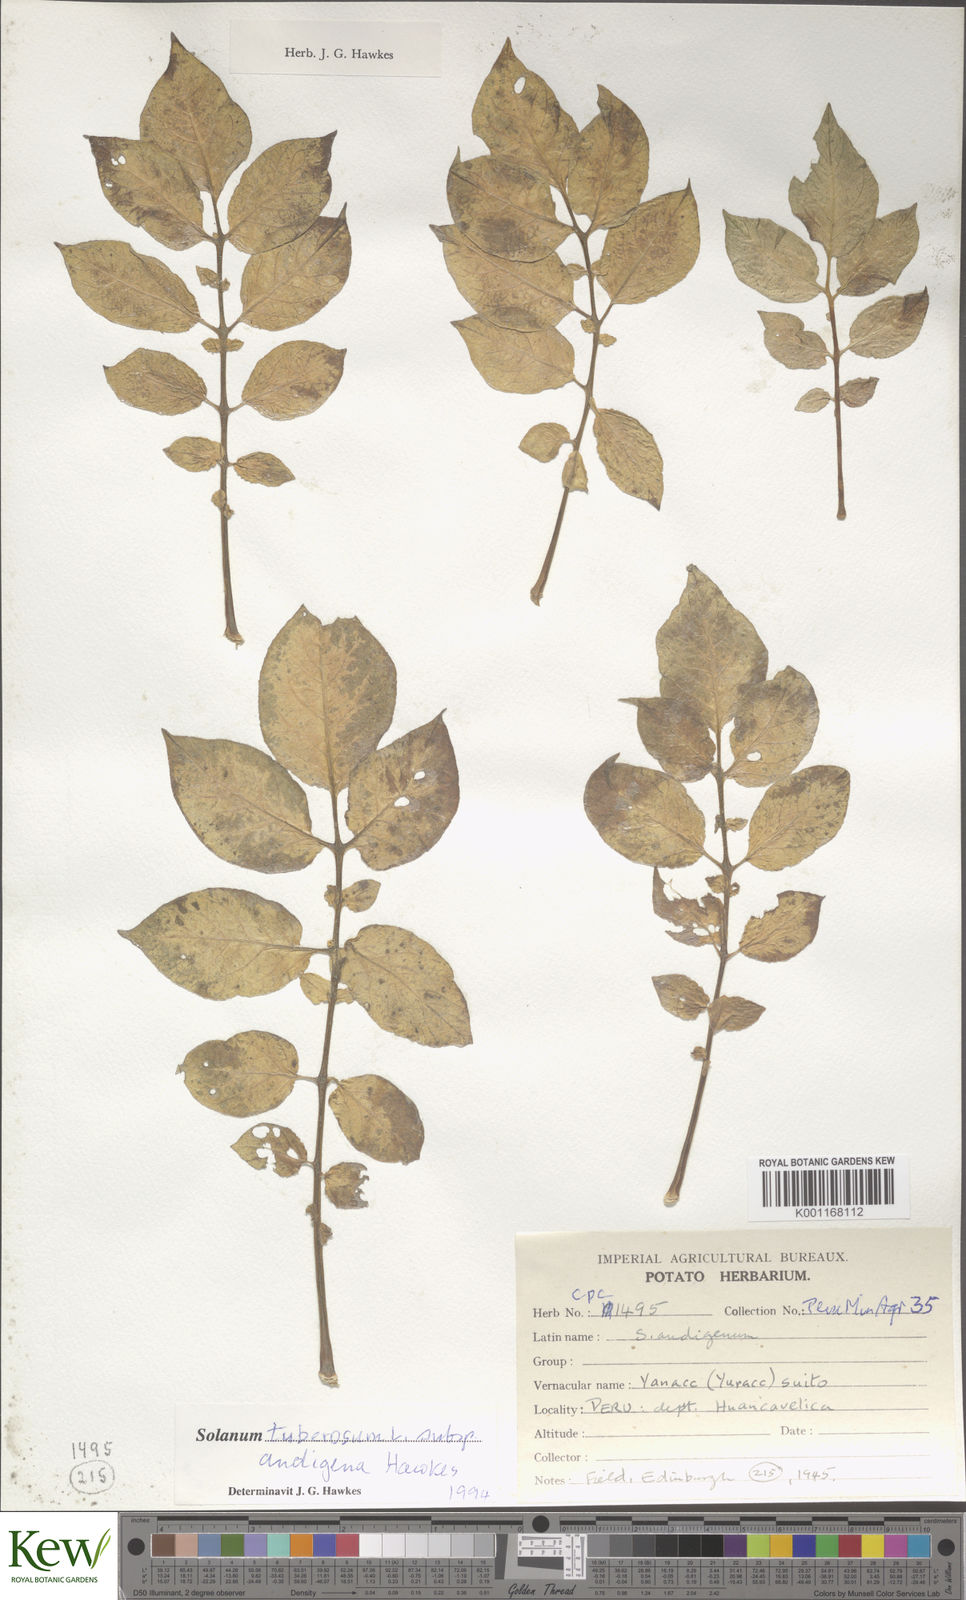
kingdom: Plantae
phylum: Tracheophyta
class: Magnoliopsida
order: Solanales
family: Solanaceae
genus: Solanum
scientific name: Solanum tuberosum
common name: Potato
